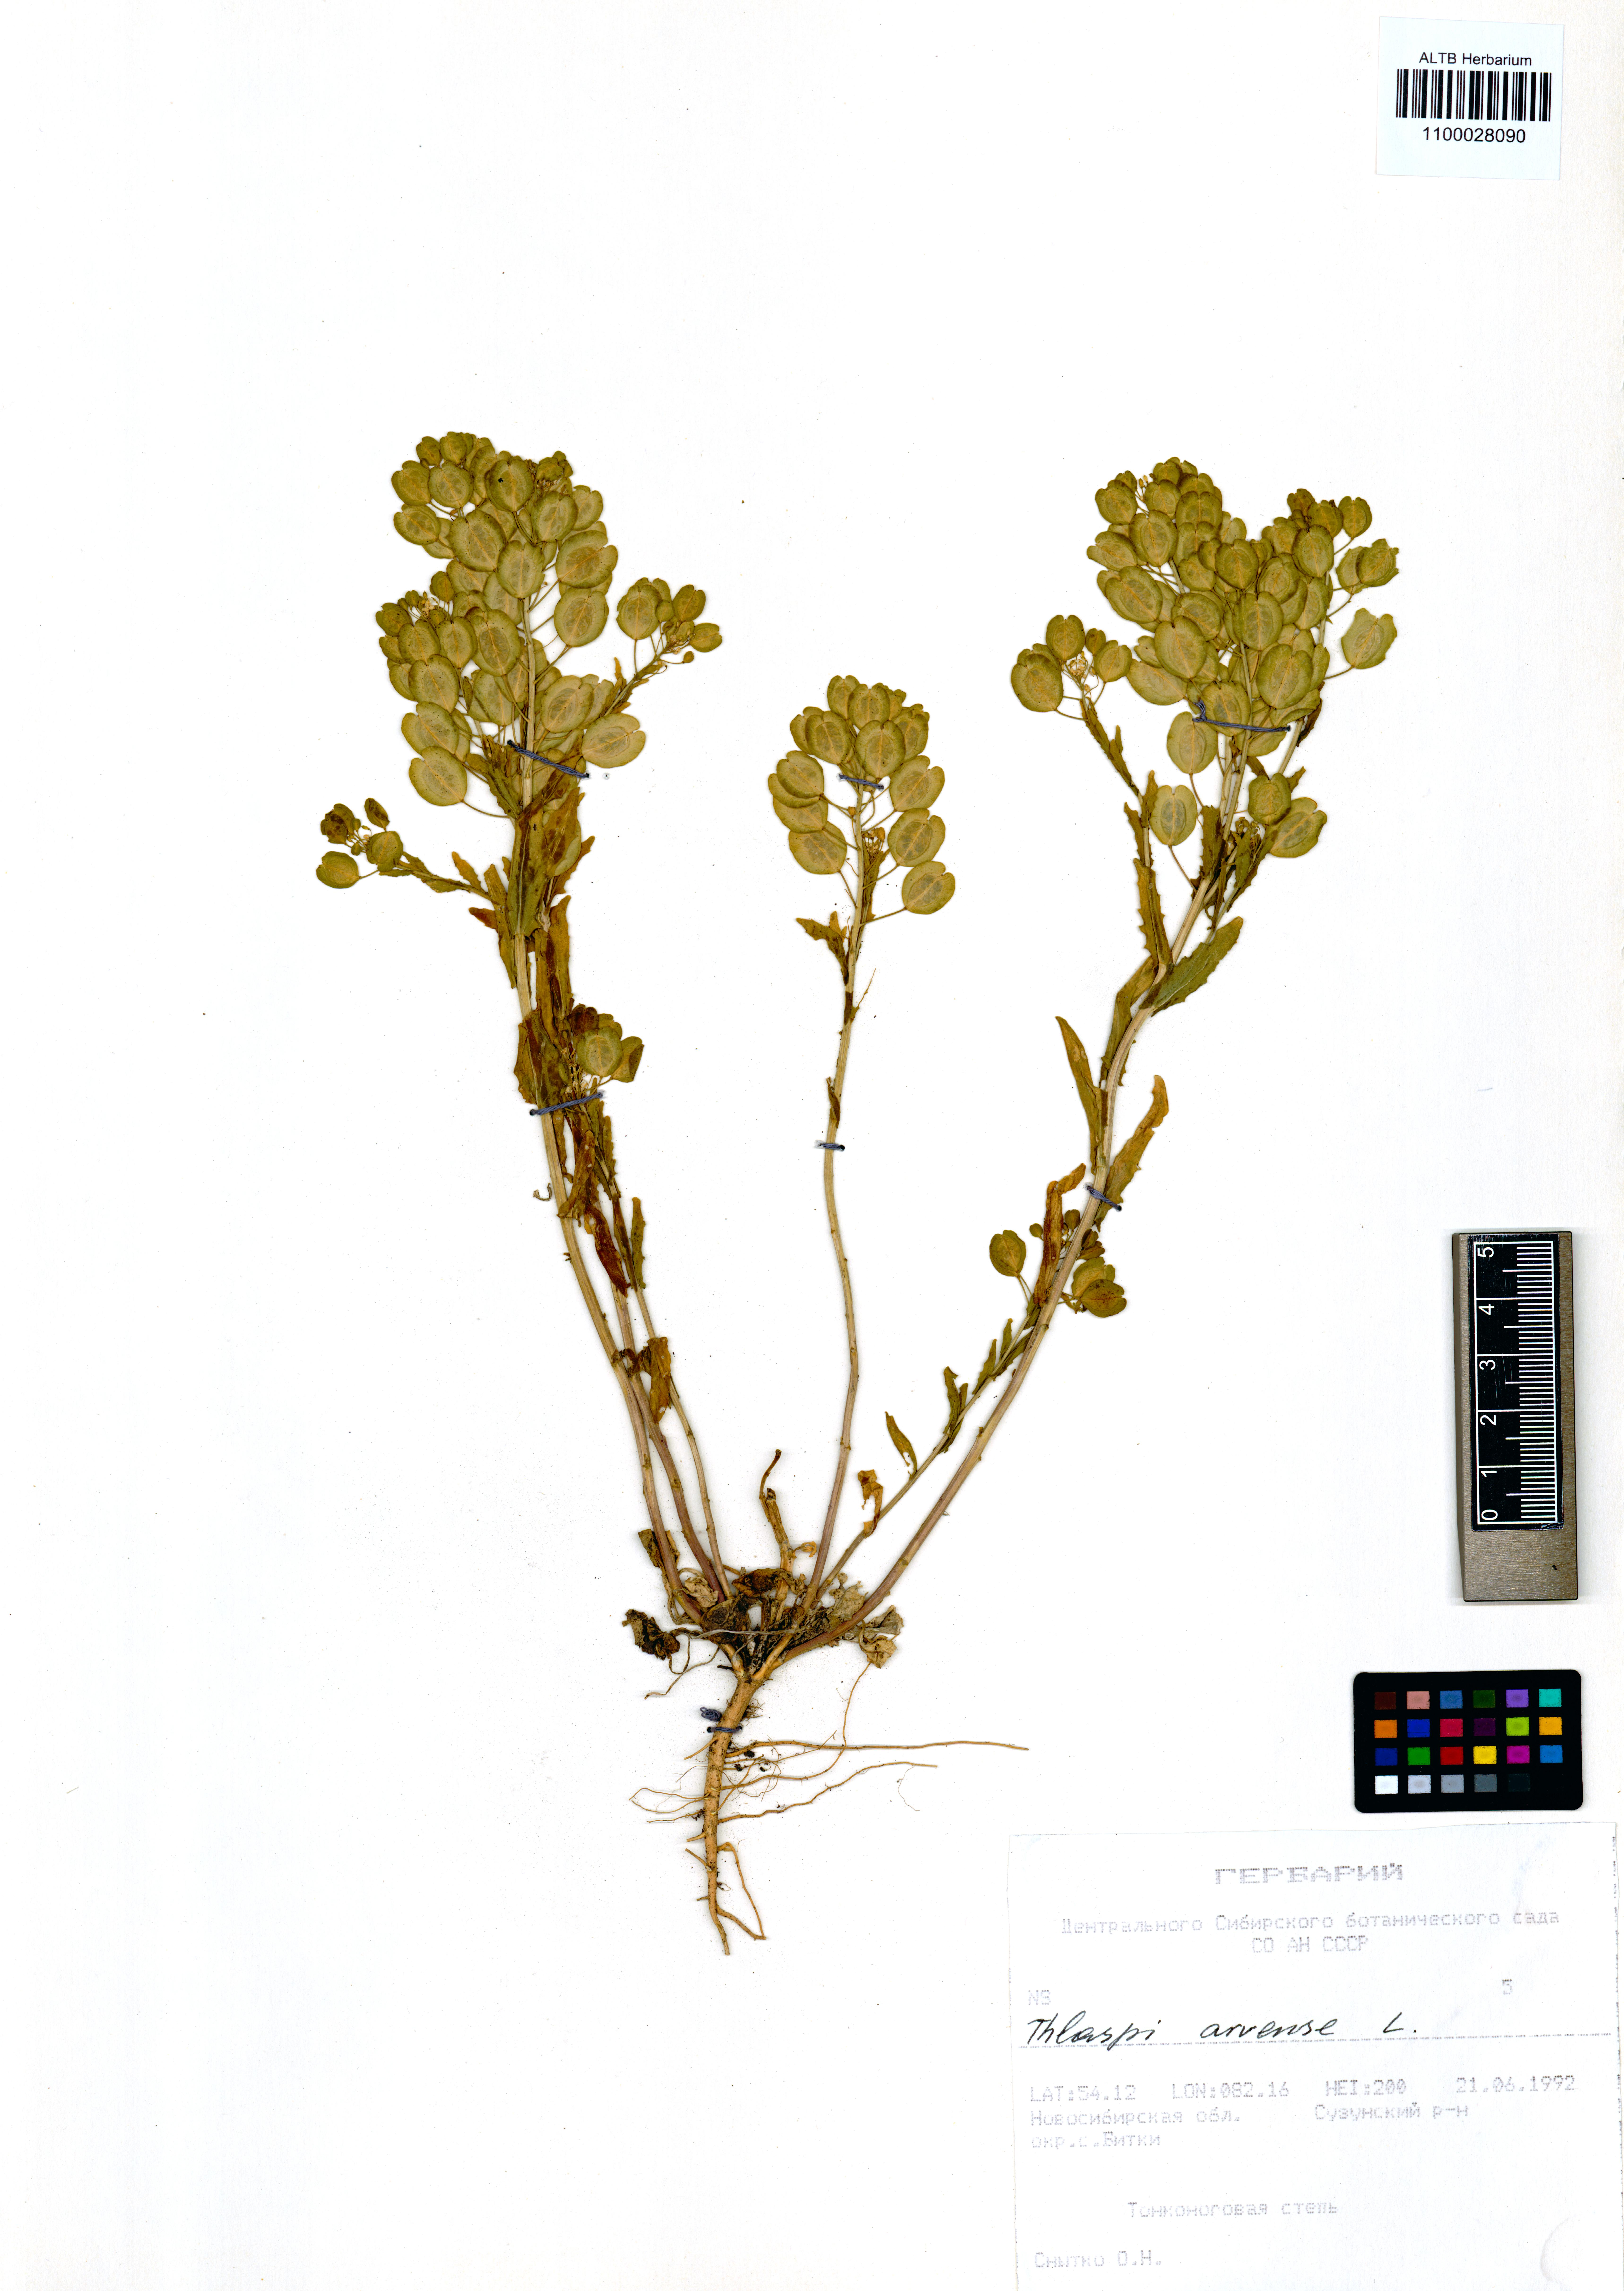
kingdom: Plantae
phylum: Tracheophyta
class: Magnoliopsida
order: Brassicales
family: Brassicaceae
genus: Thlaspi
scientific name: Thlaspi arvense
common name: Field pennycress
